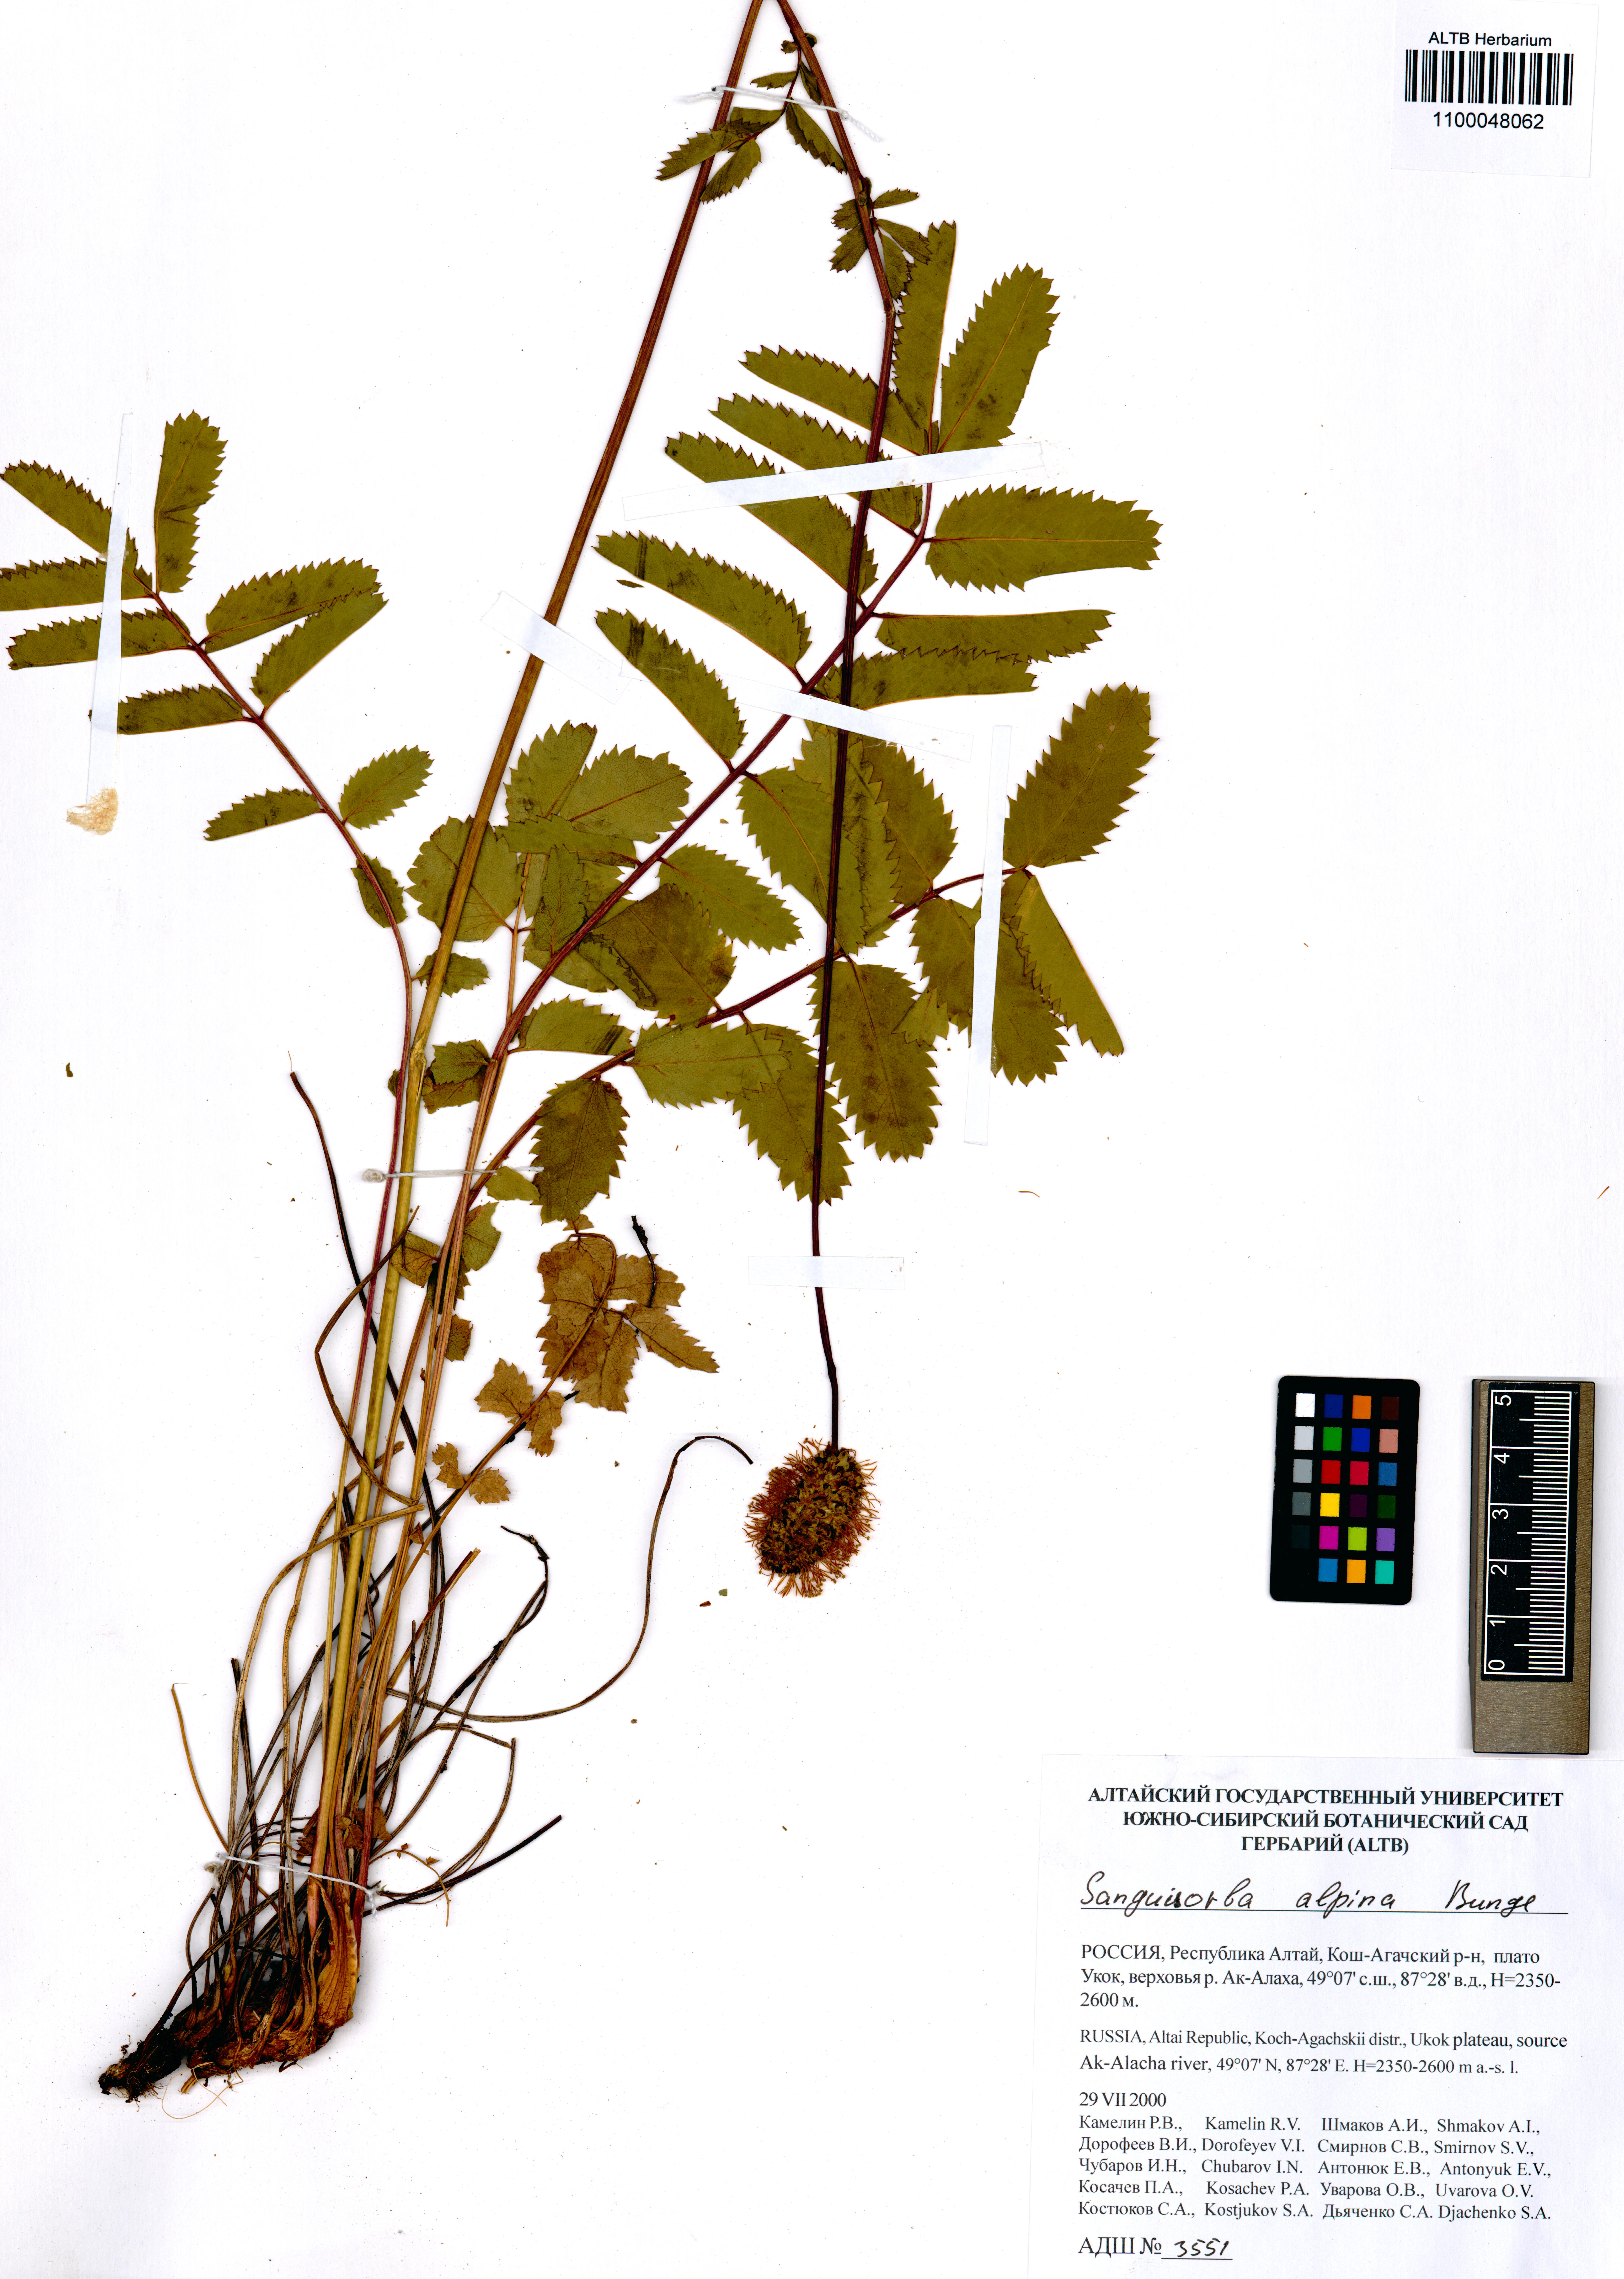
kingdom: Plantae
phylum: Tracheophyta
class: Magnoliopsida
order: Rosales
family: Rosaceae
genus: Sanguisorba
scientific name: Sanguisorba alpina
